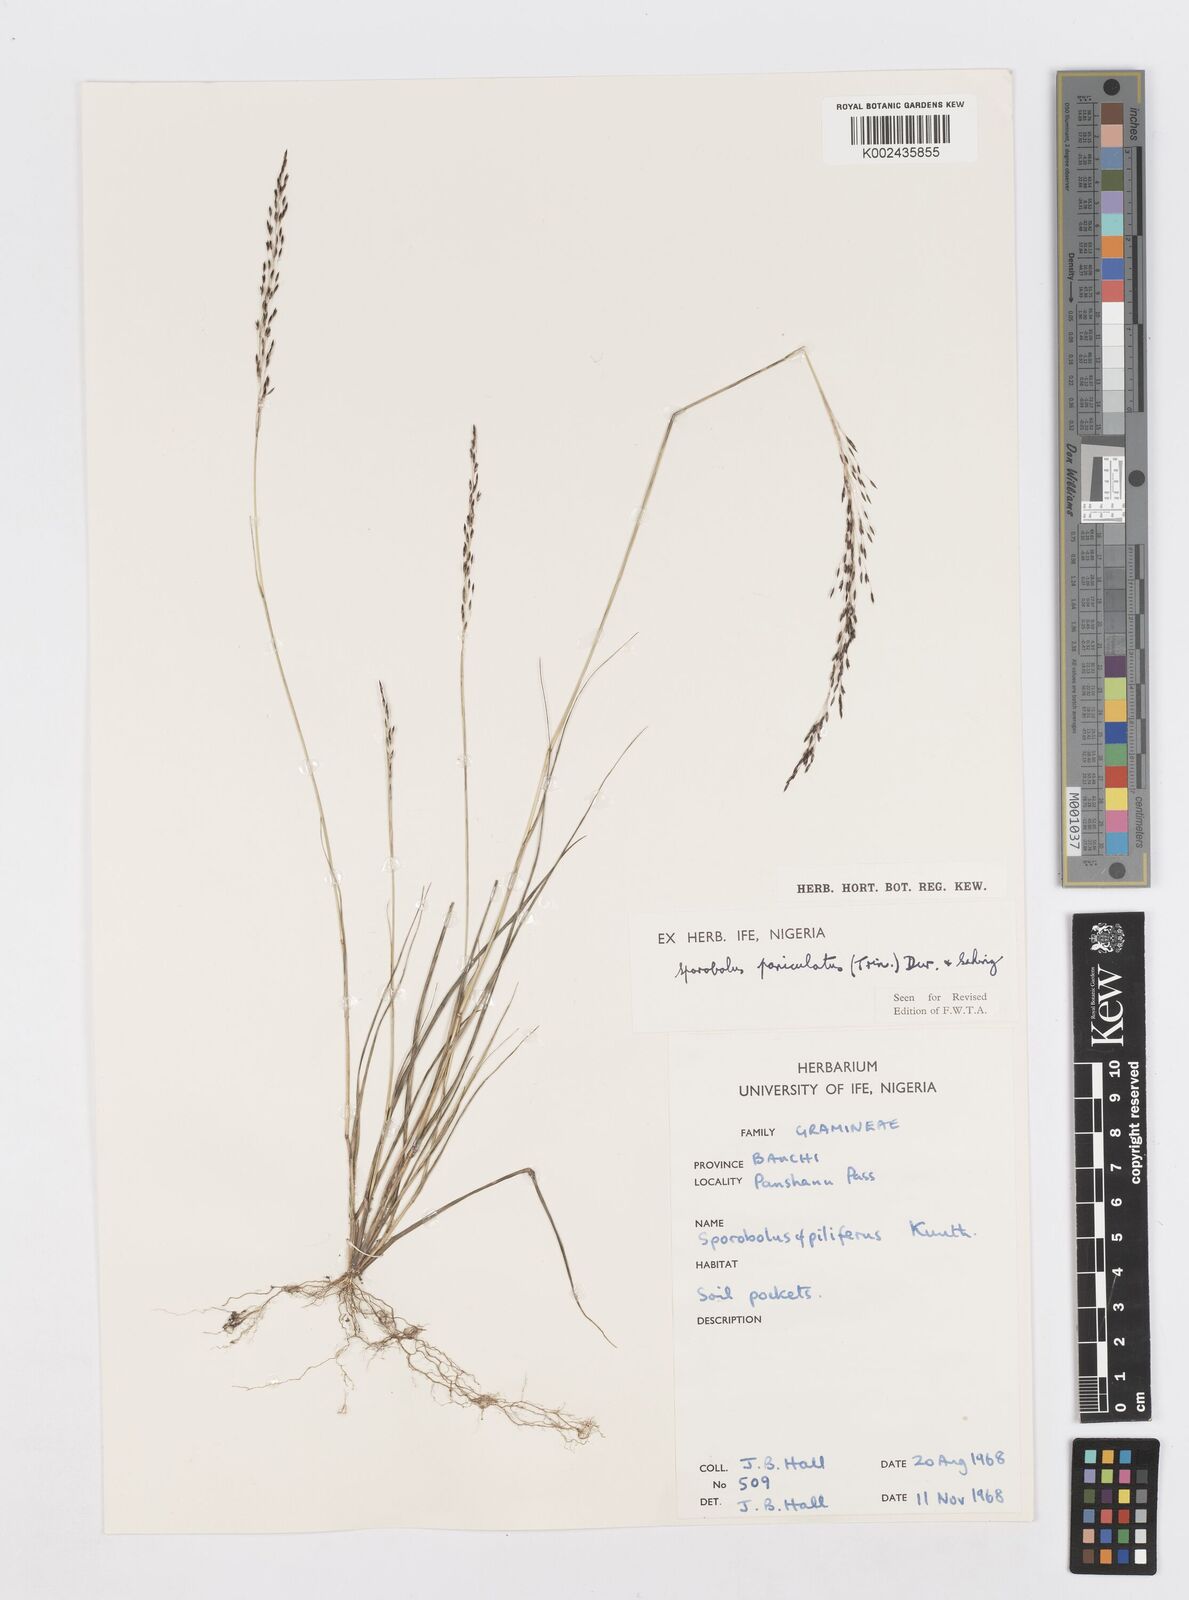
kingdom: Plantae
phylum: Tracheophyta
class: Liliopsida
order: Poales
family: Poaceae
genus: Sporobolus
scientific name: Sporobolus paniculatus
